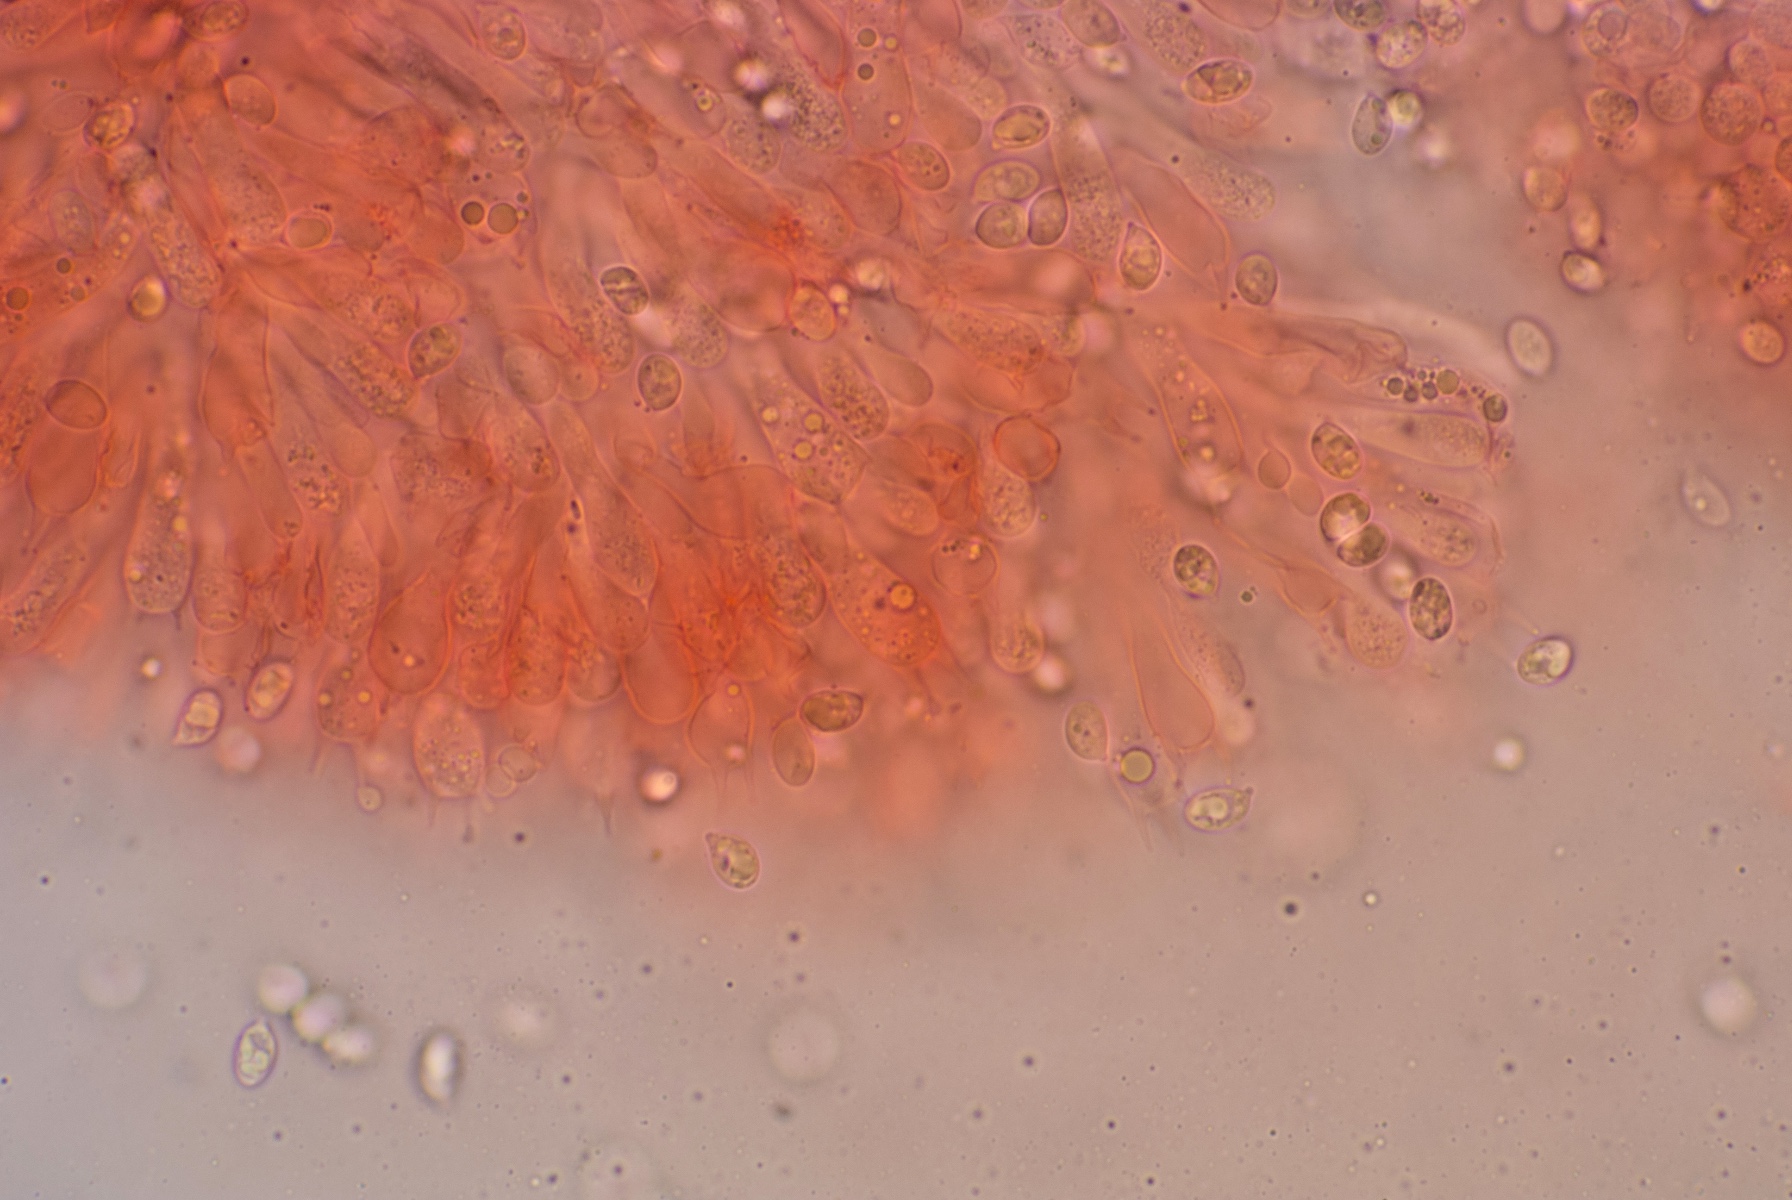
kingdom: Fungi
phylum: Basidiomycota
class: Agaricomycetes
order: Agaricales
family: Pseudoclitocybaceae
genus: Musumecia
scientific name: Musumecia vermicularis
